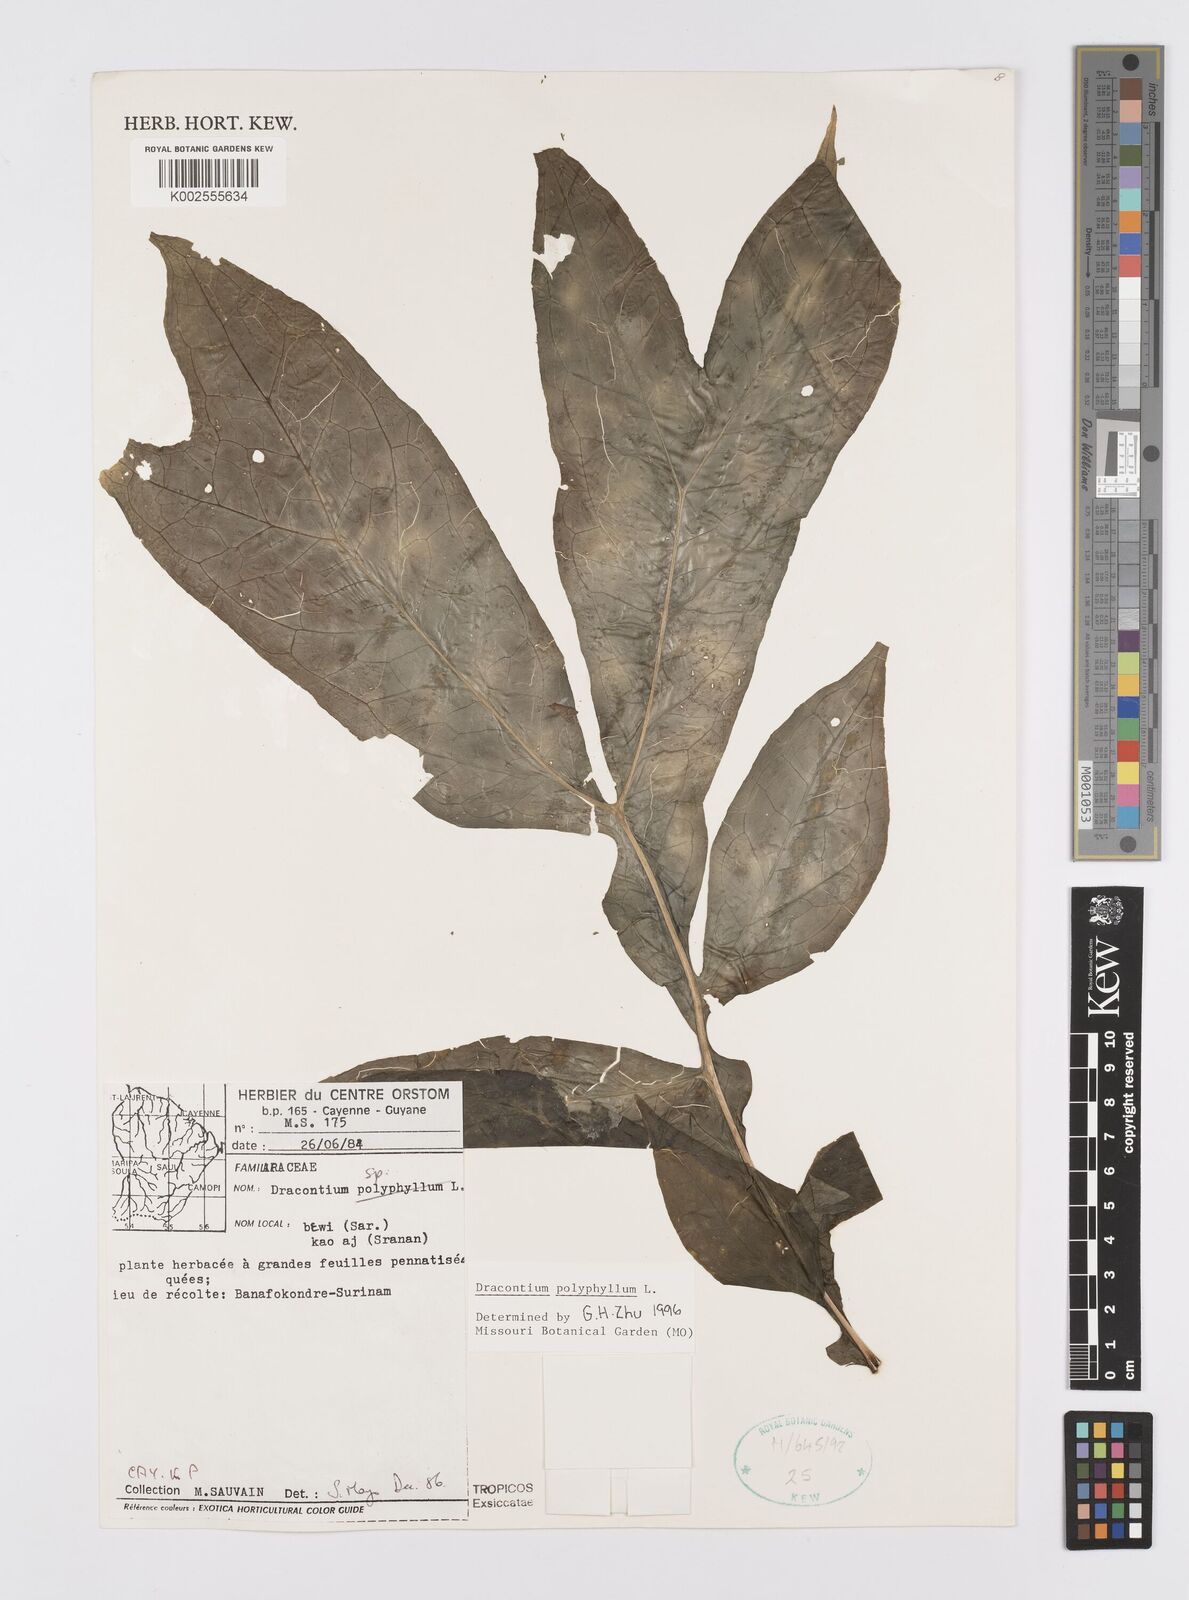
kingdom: Plantae
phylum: Tracheophyta
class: Liliopsida
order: Alismatales
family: Araceae
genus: Dracontium
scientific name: Dracontium polyphyllum
